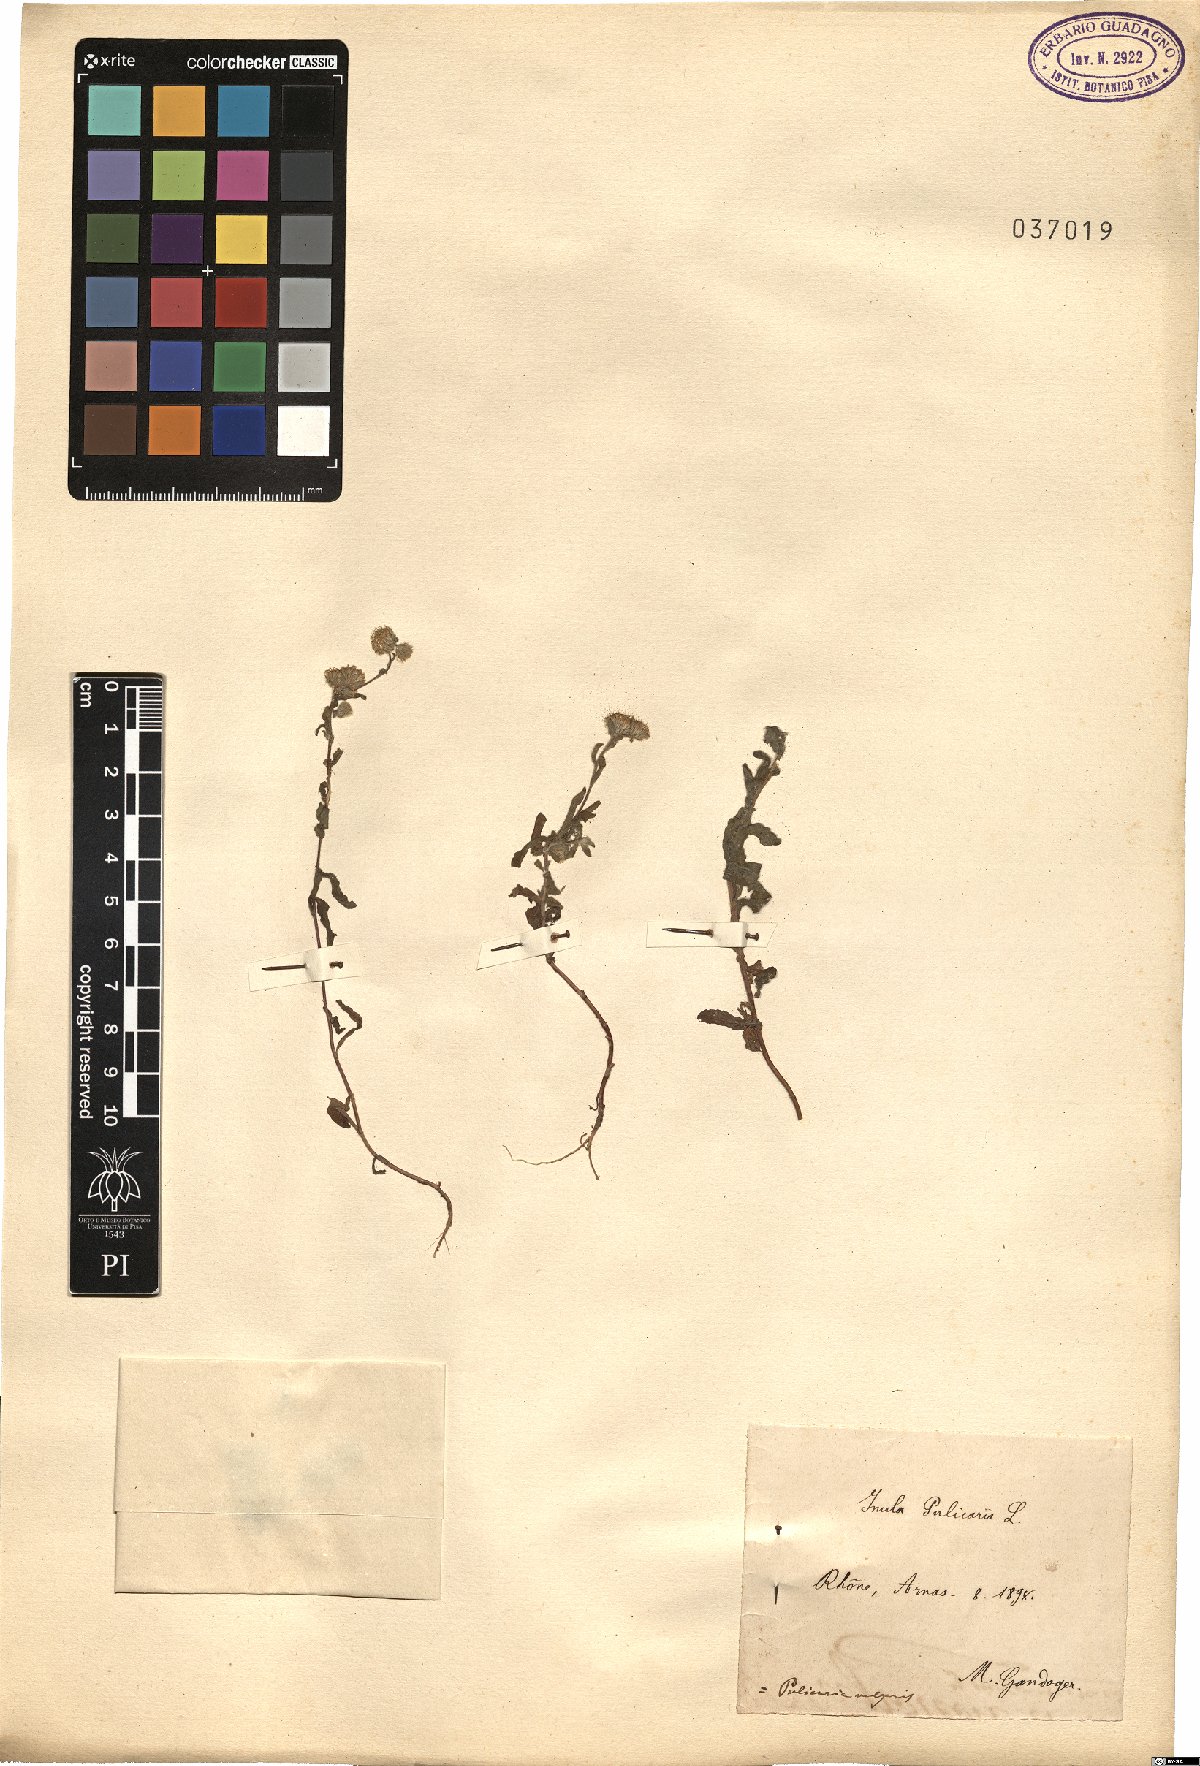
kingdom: Plantae
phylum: Tracheophyta
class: Magnoliopsida
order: Asterales
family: Asteraceae
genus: Pulicaria
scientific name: Pulicaria vulgaris
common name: Small fleabane
